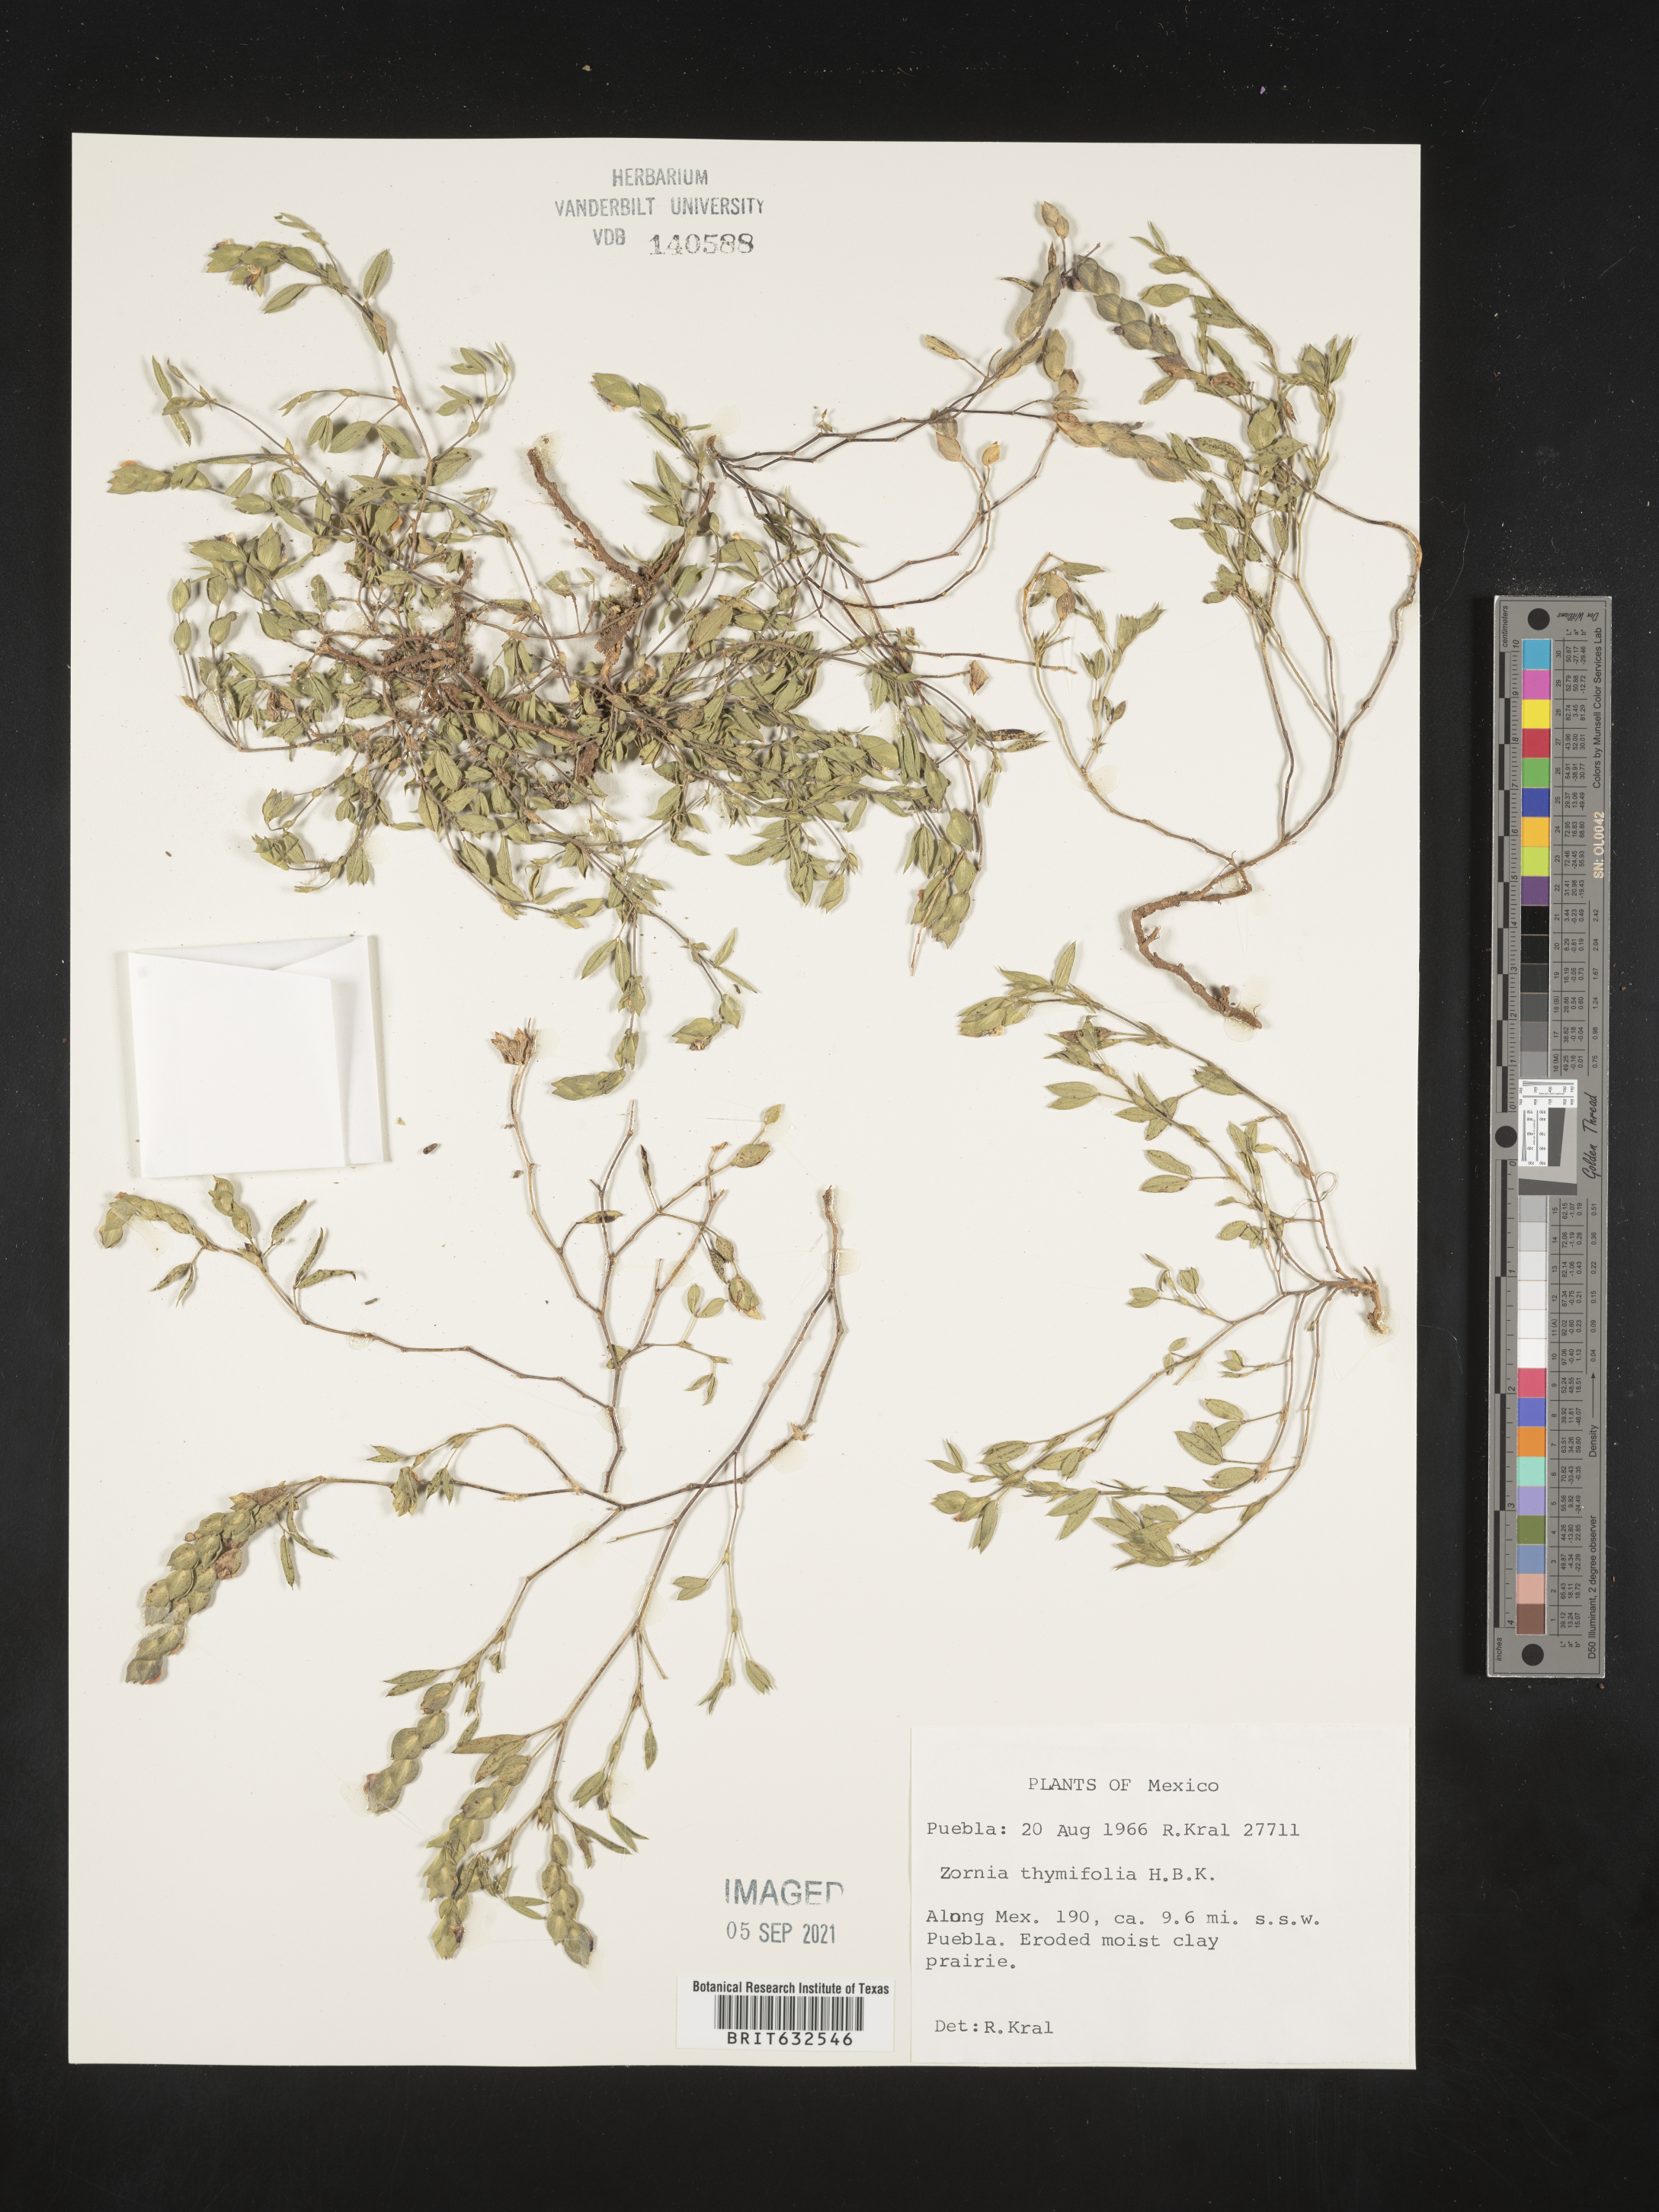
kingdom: Plantae
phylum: Tracheophyta
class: Magnoliopsida
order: Fabales
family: Fabaceae
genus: Zornia
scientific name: Zornia
